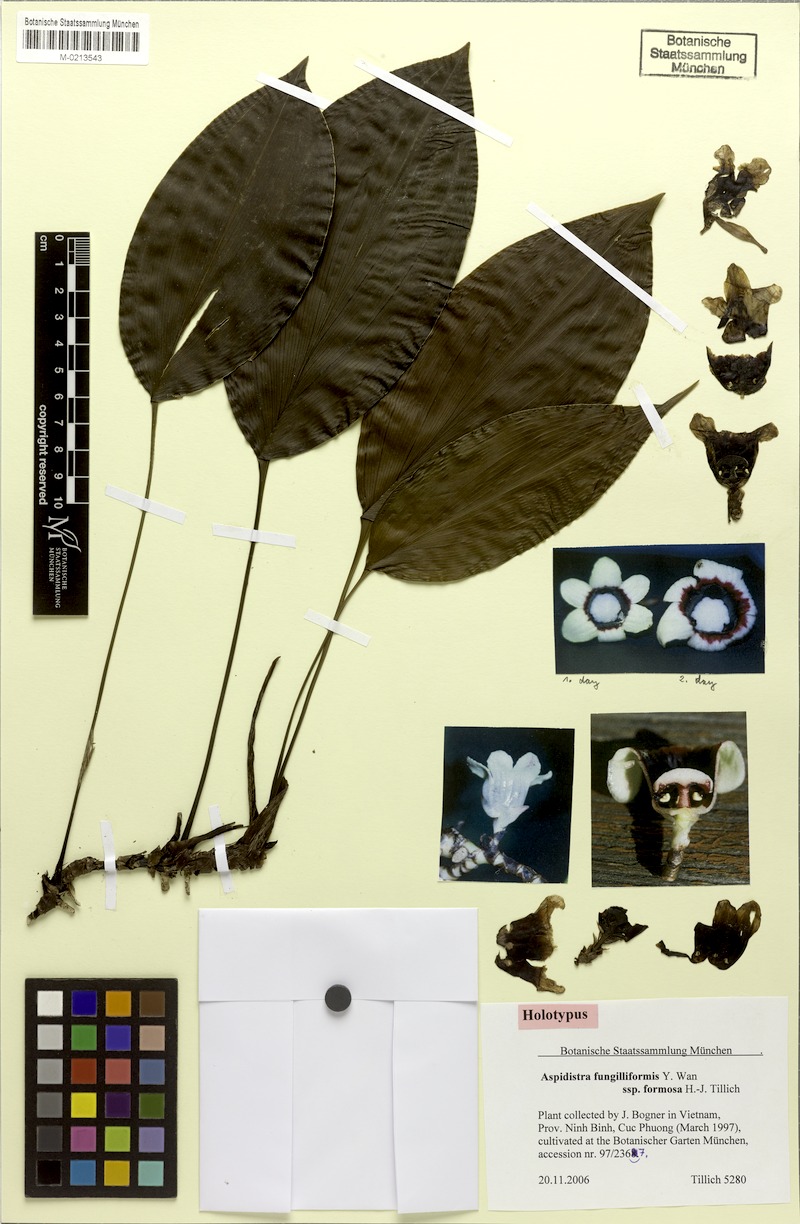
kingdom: Plantae
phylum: Tracheophyta
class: Liliopsida
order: Asparagales
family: Asparagaceae
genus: Aspidistra
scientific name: Aspidistra tonkinensis
